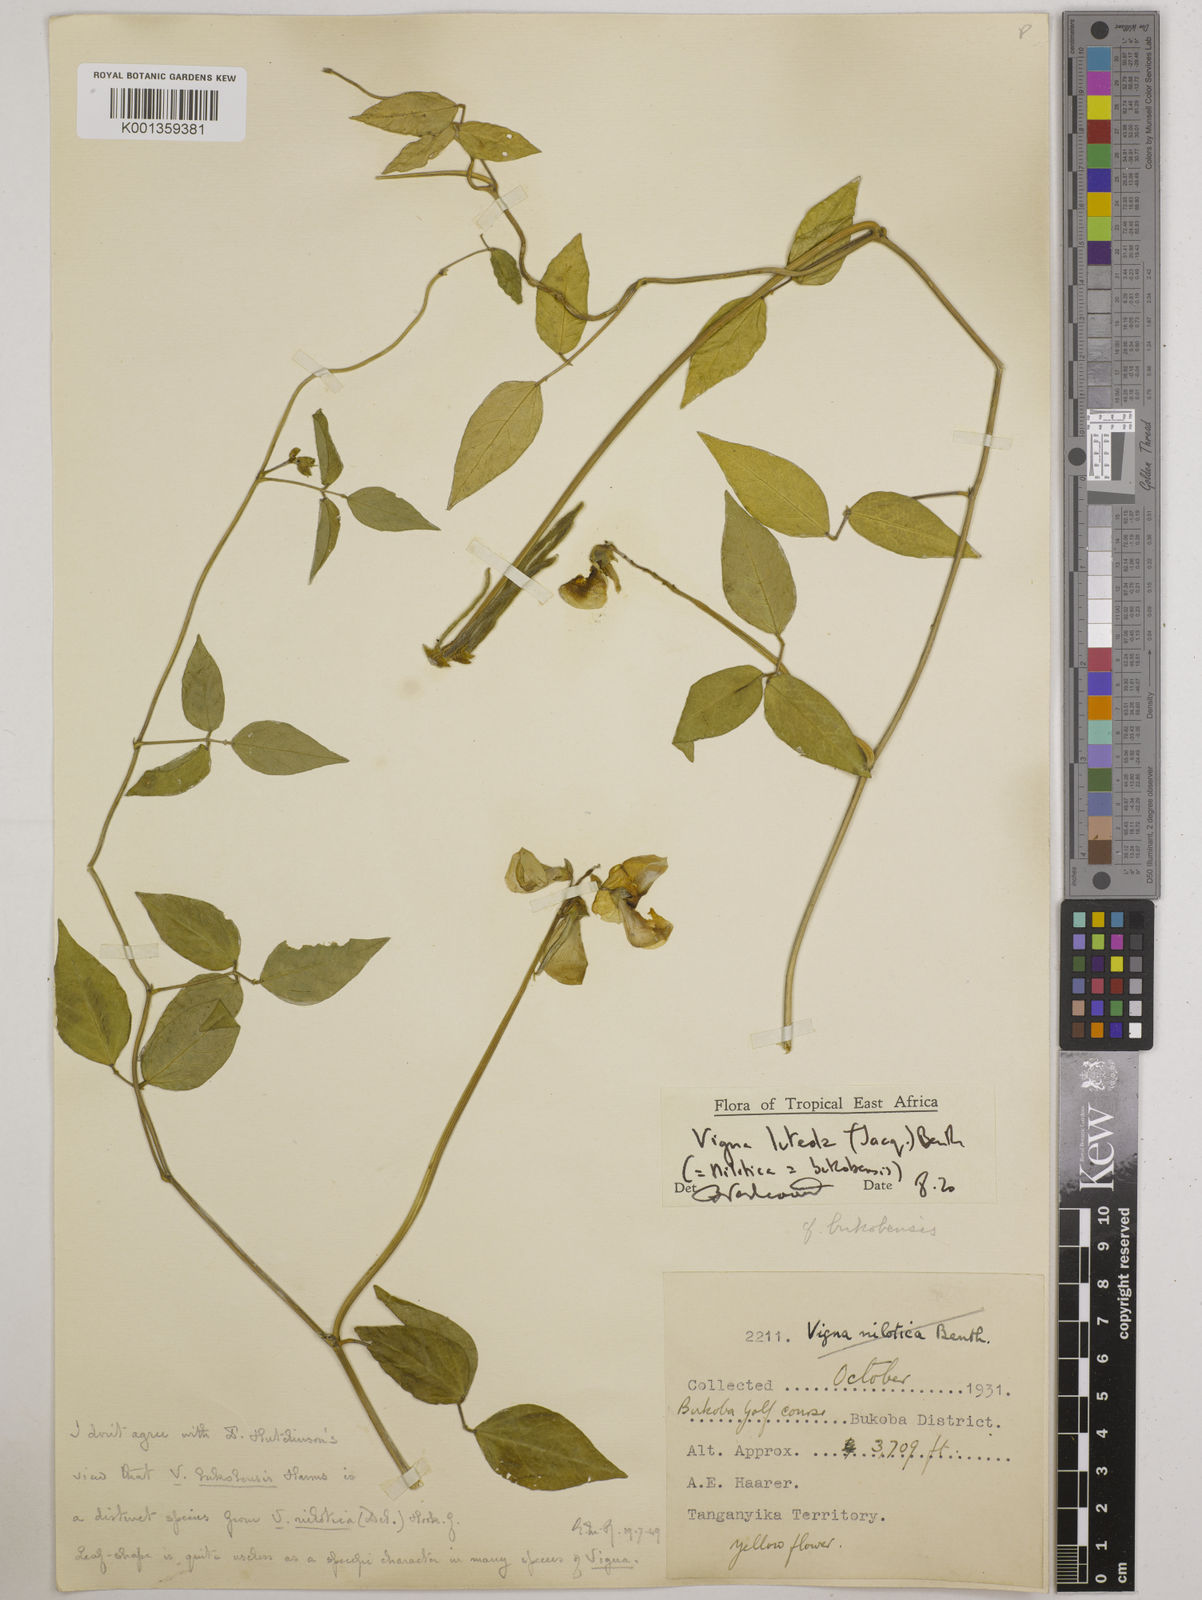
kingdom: Plantae
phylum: Tracheophyta
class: Magnoliopsida
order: Fabales
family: Fabaceae
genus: Vigna
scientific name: Vigna luteola
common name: Hairypod cowpea
